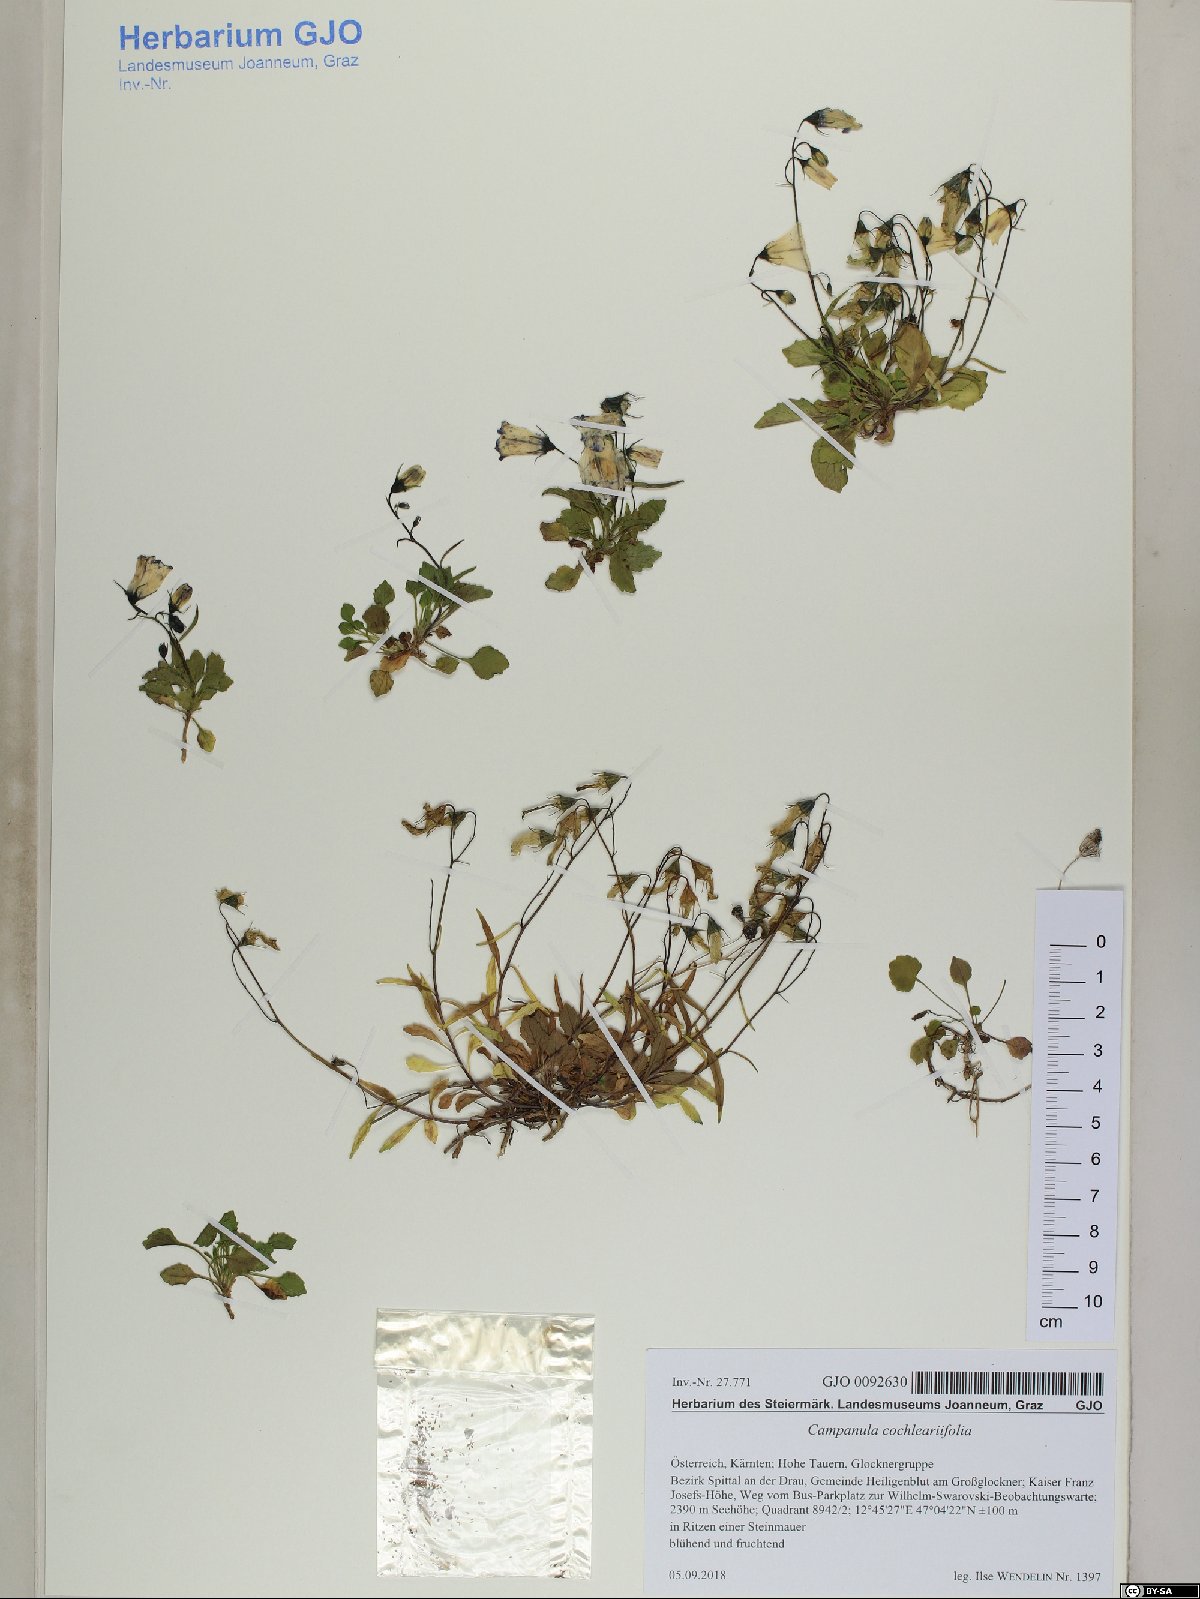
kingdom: Plantae
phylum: Tracheophyta
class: Magnoliopsida
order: Asterales
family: Campanulaceae
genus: Campanula
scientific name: Campanula cochleariifolia
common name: Fairies'-thimbles
